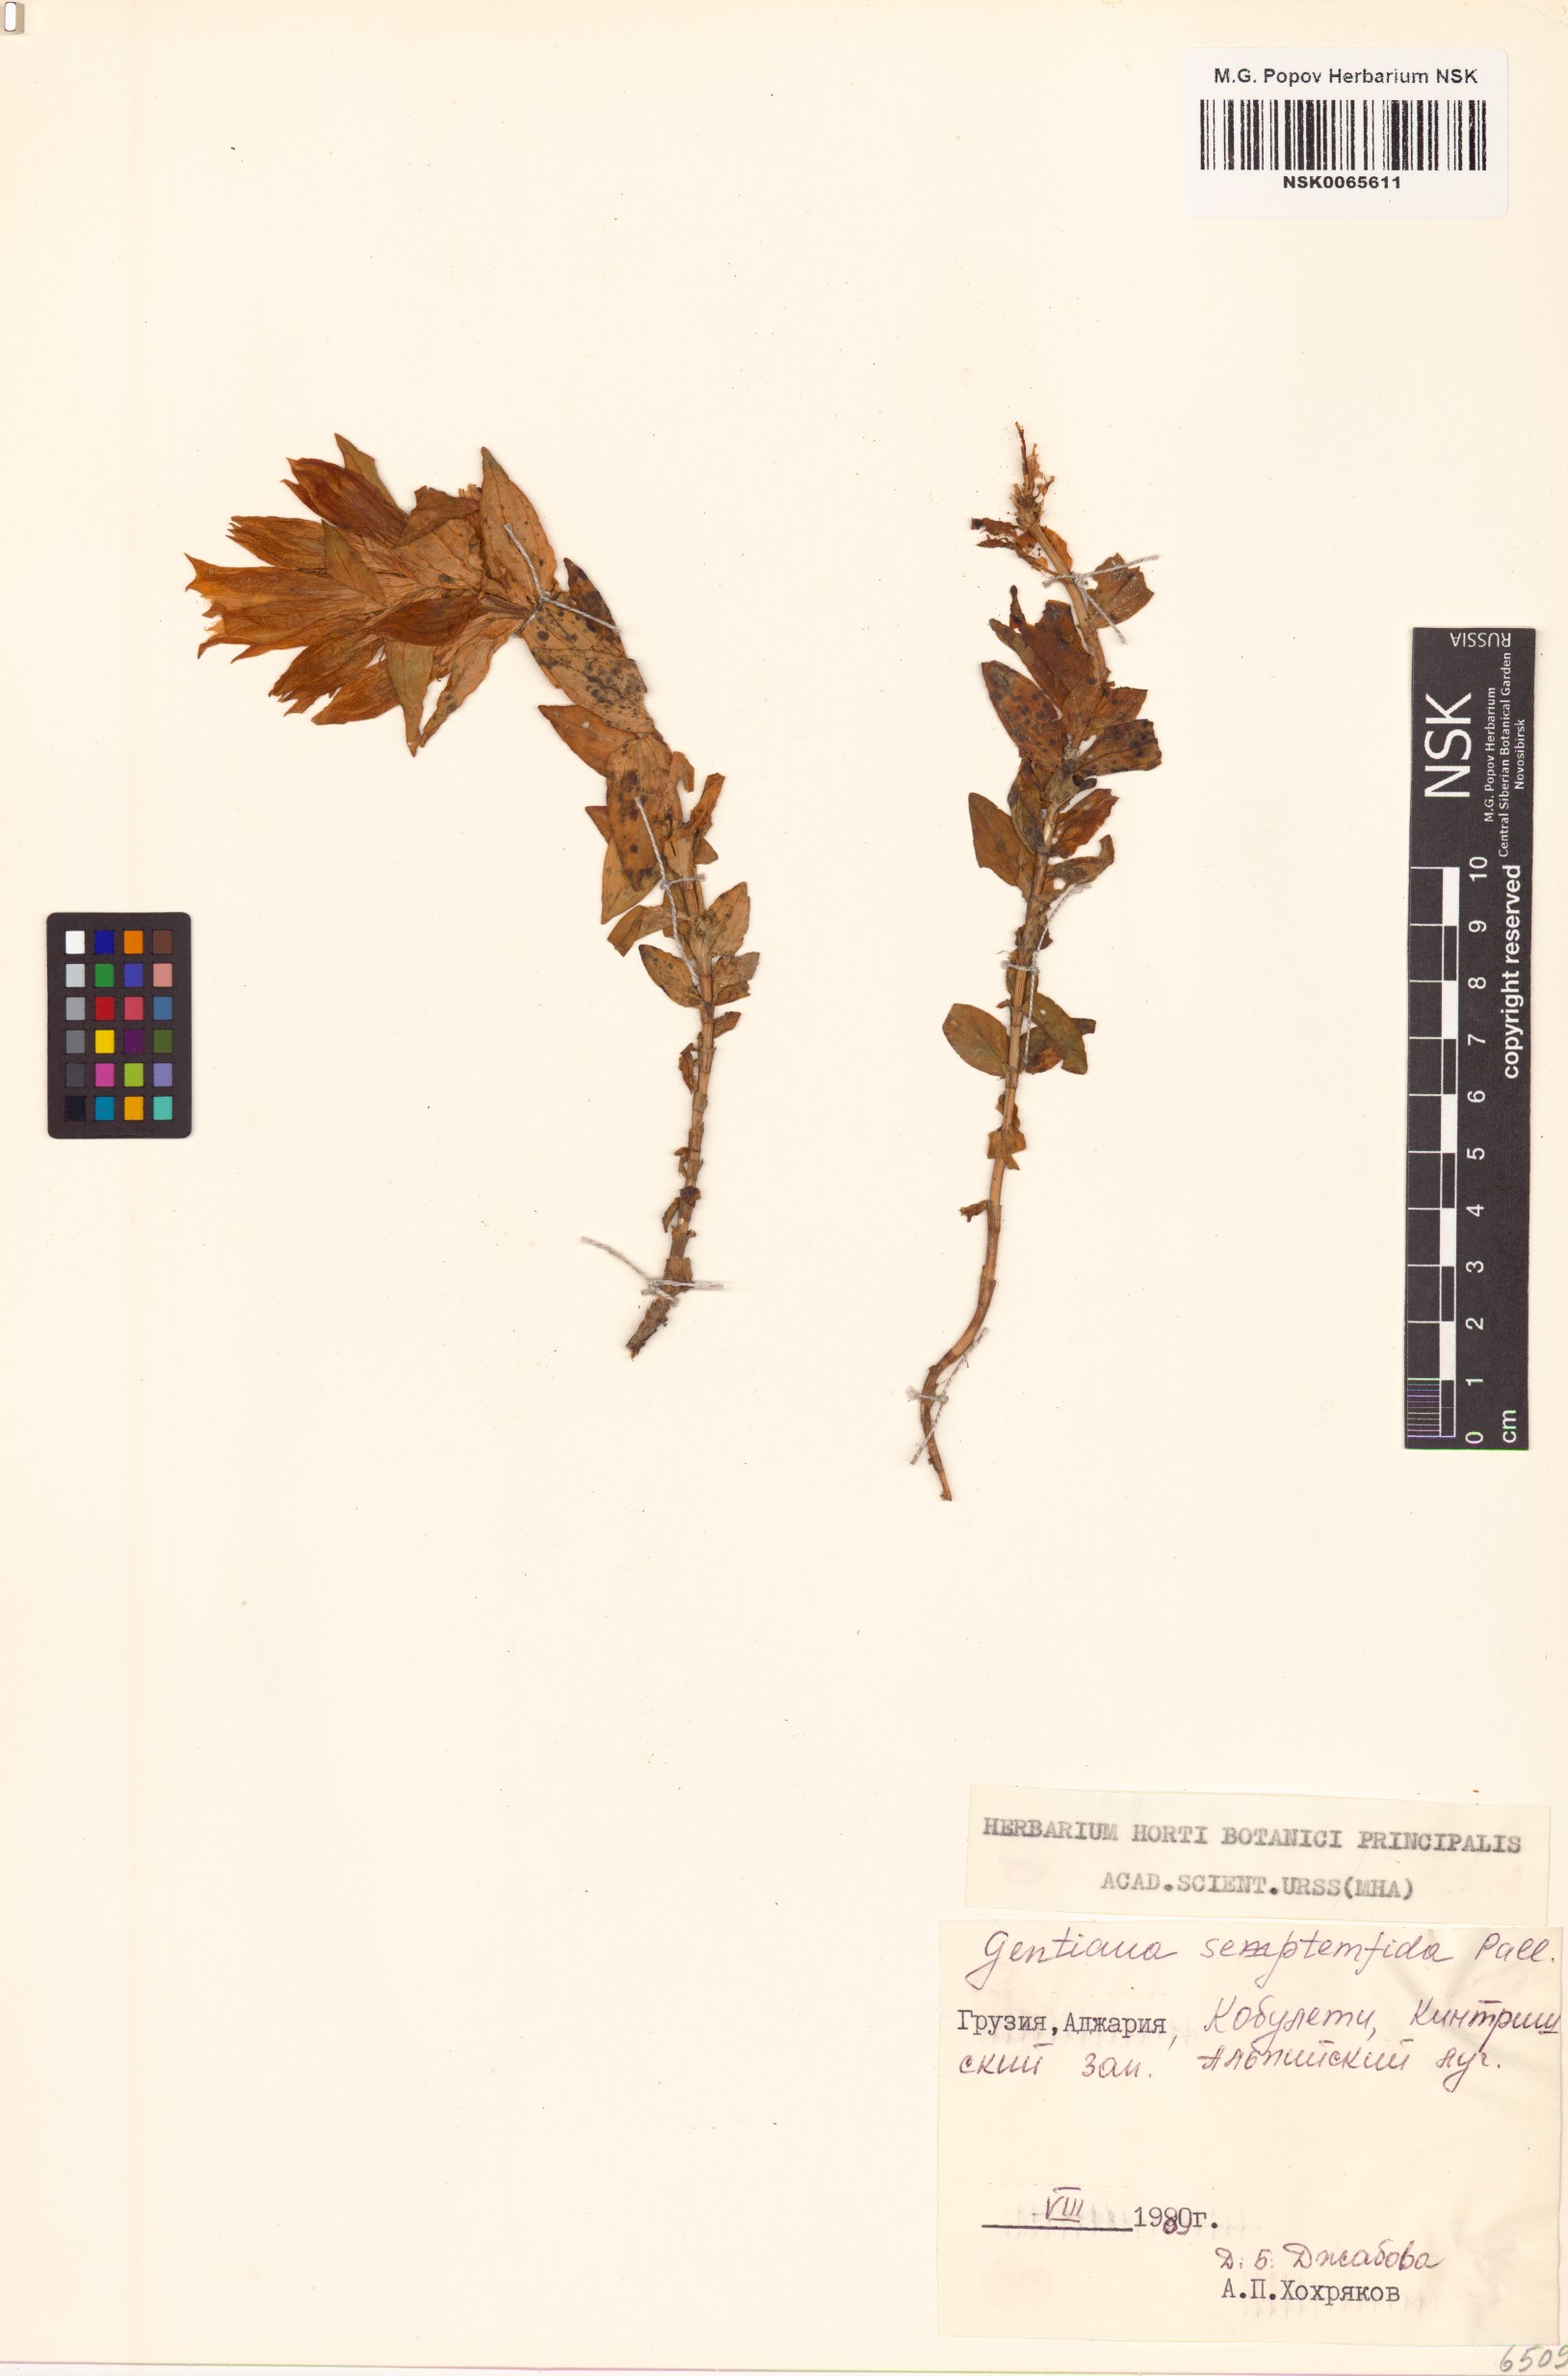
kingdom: Plantae
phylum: Tracheophyta
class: Magnoliopsida
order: Gentianales
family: Gentianaceae
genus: Gentiana
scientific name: Gentiana septemfida
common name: Crested gentian
